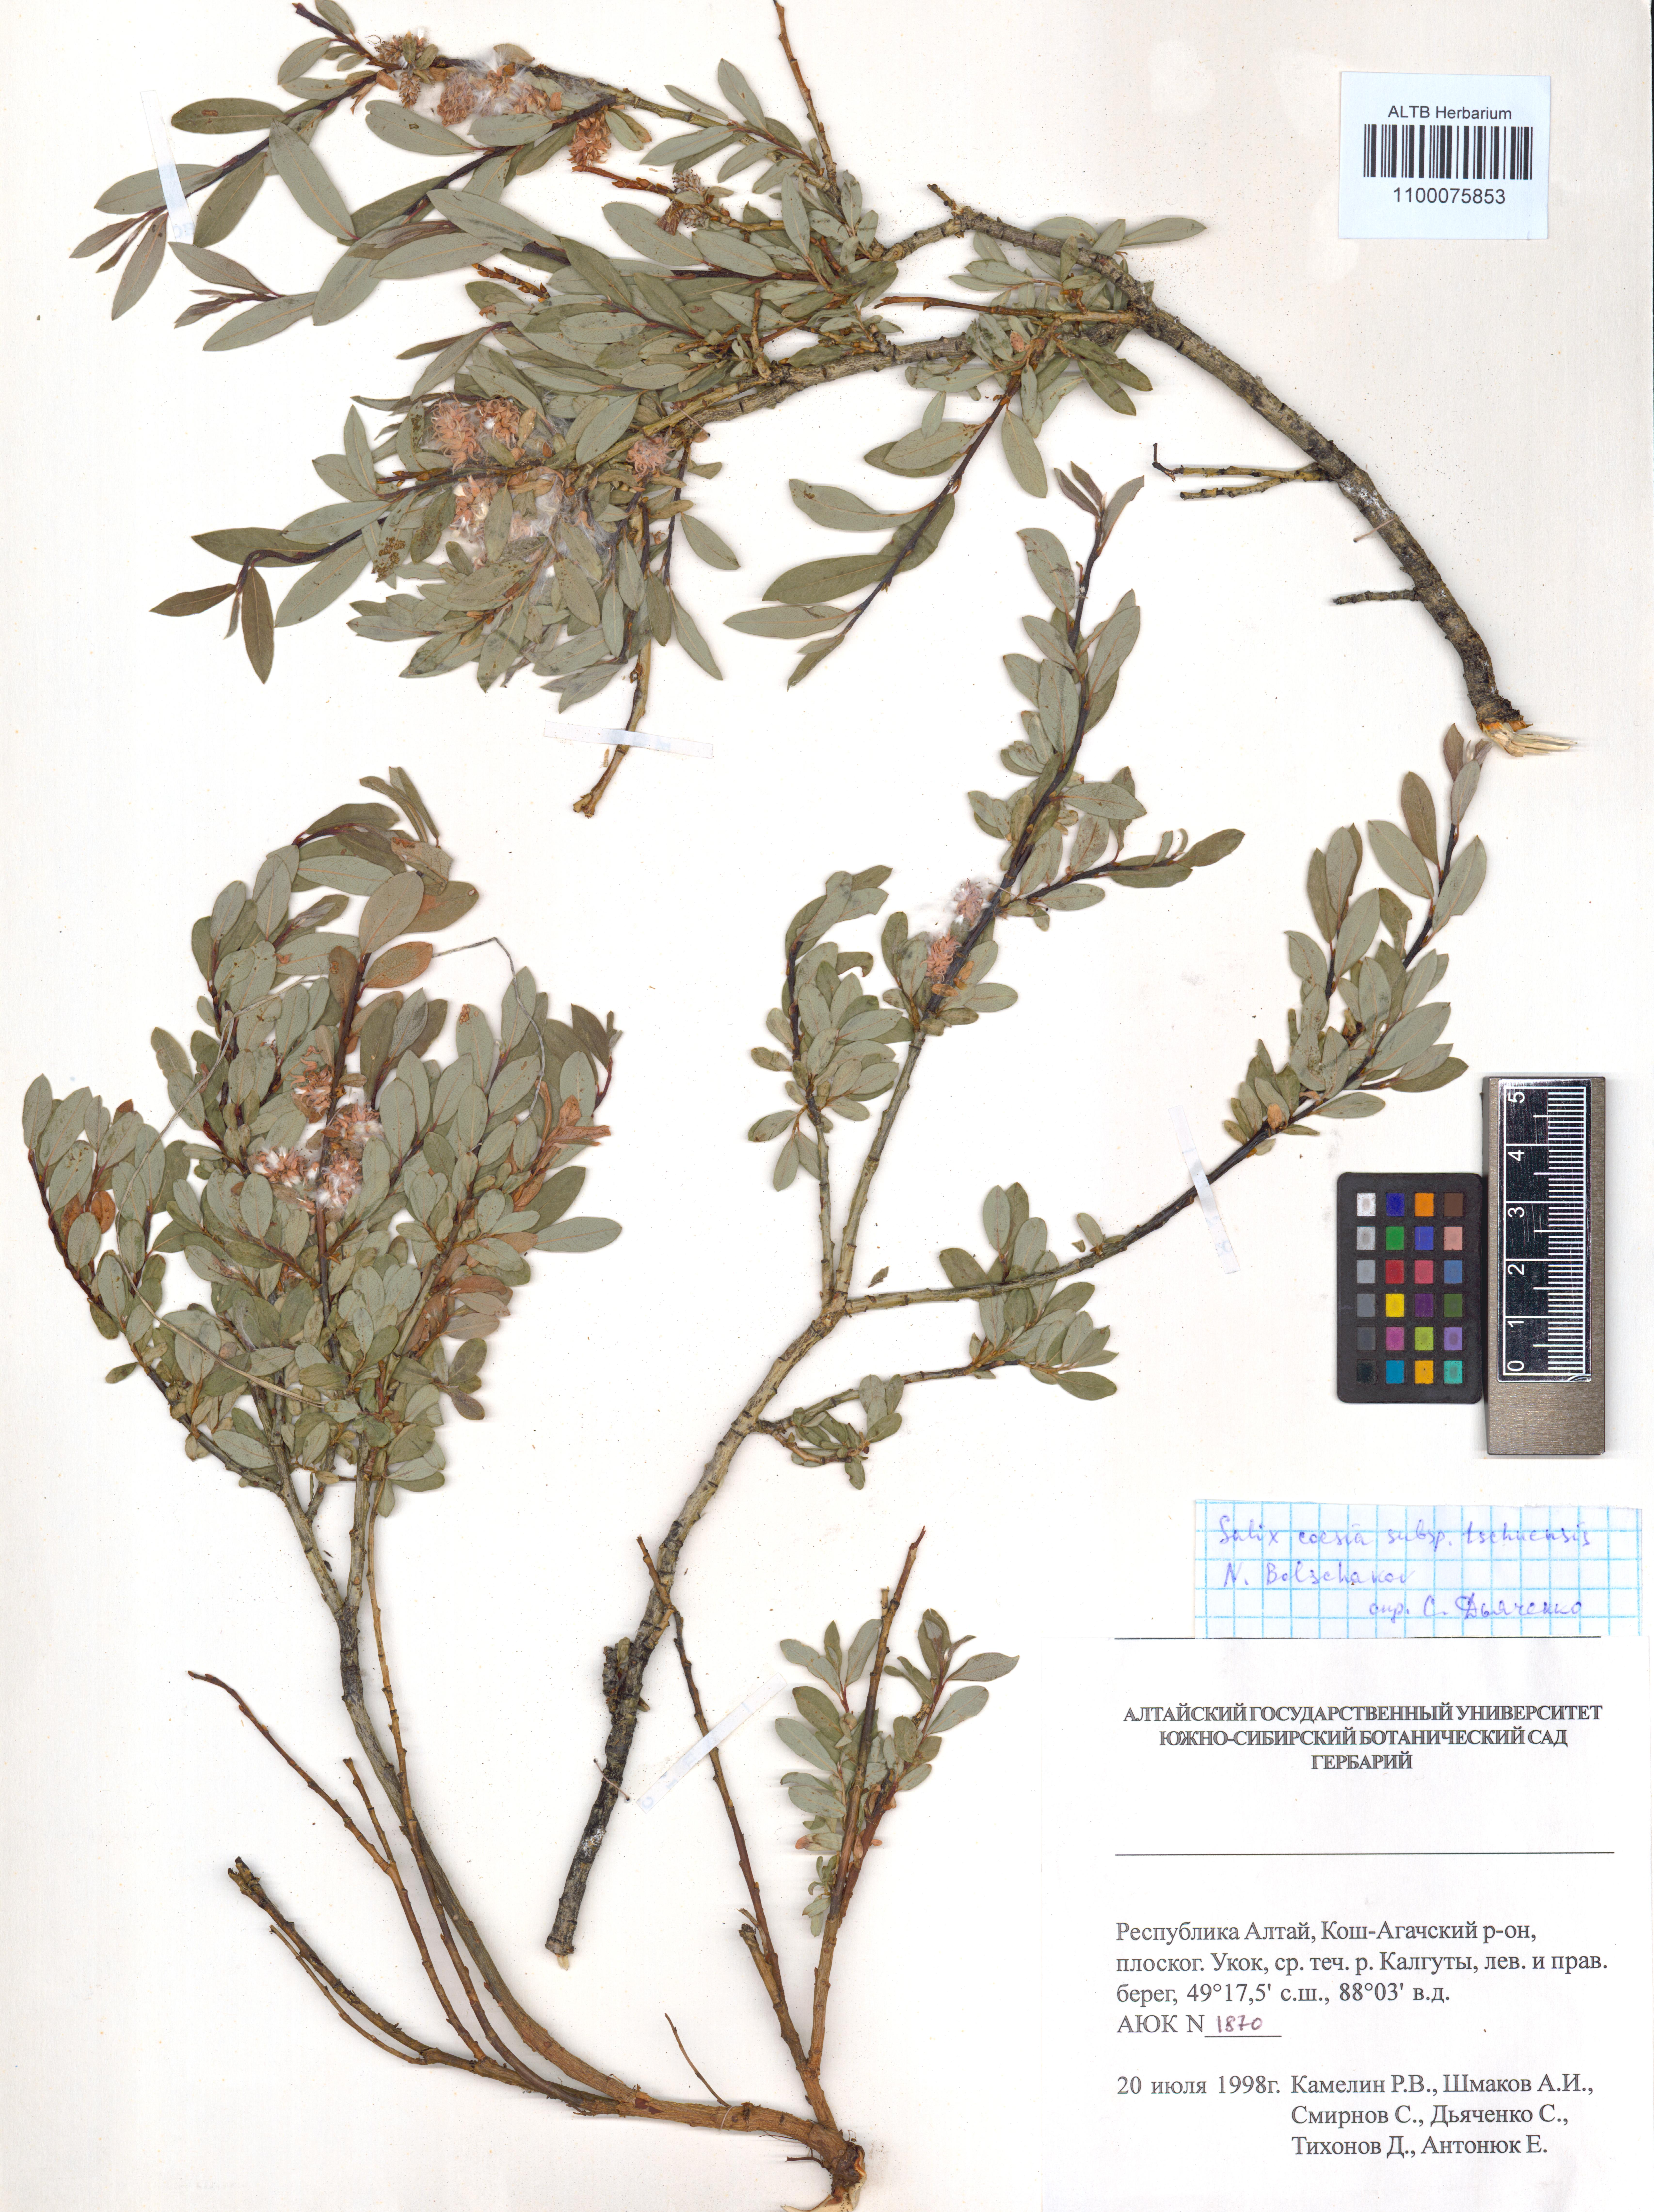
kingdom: Plantae
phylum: Tracheophyta
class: Magnoliopsida
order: Malpighiales
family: Salicaceae
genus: Salix
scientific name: Salix caesia
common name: Blue willow
